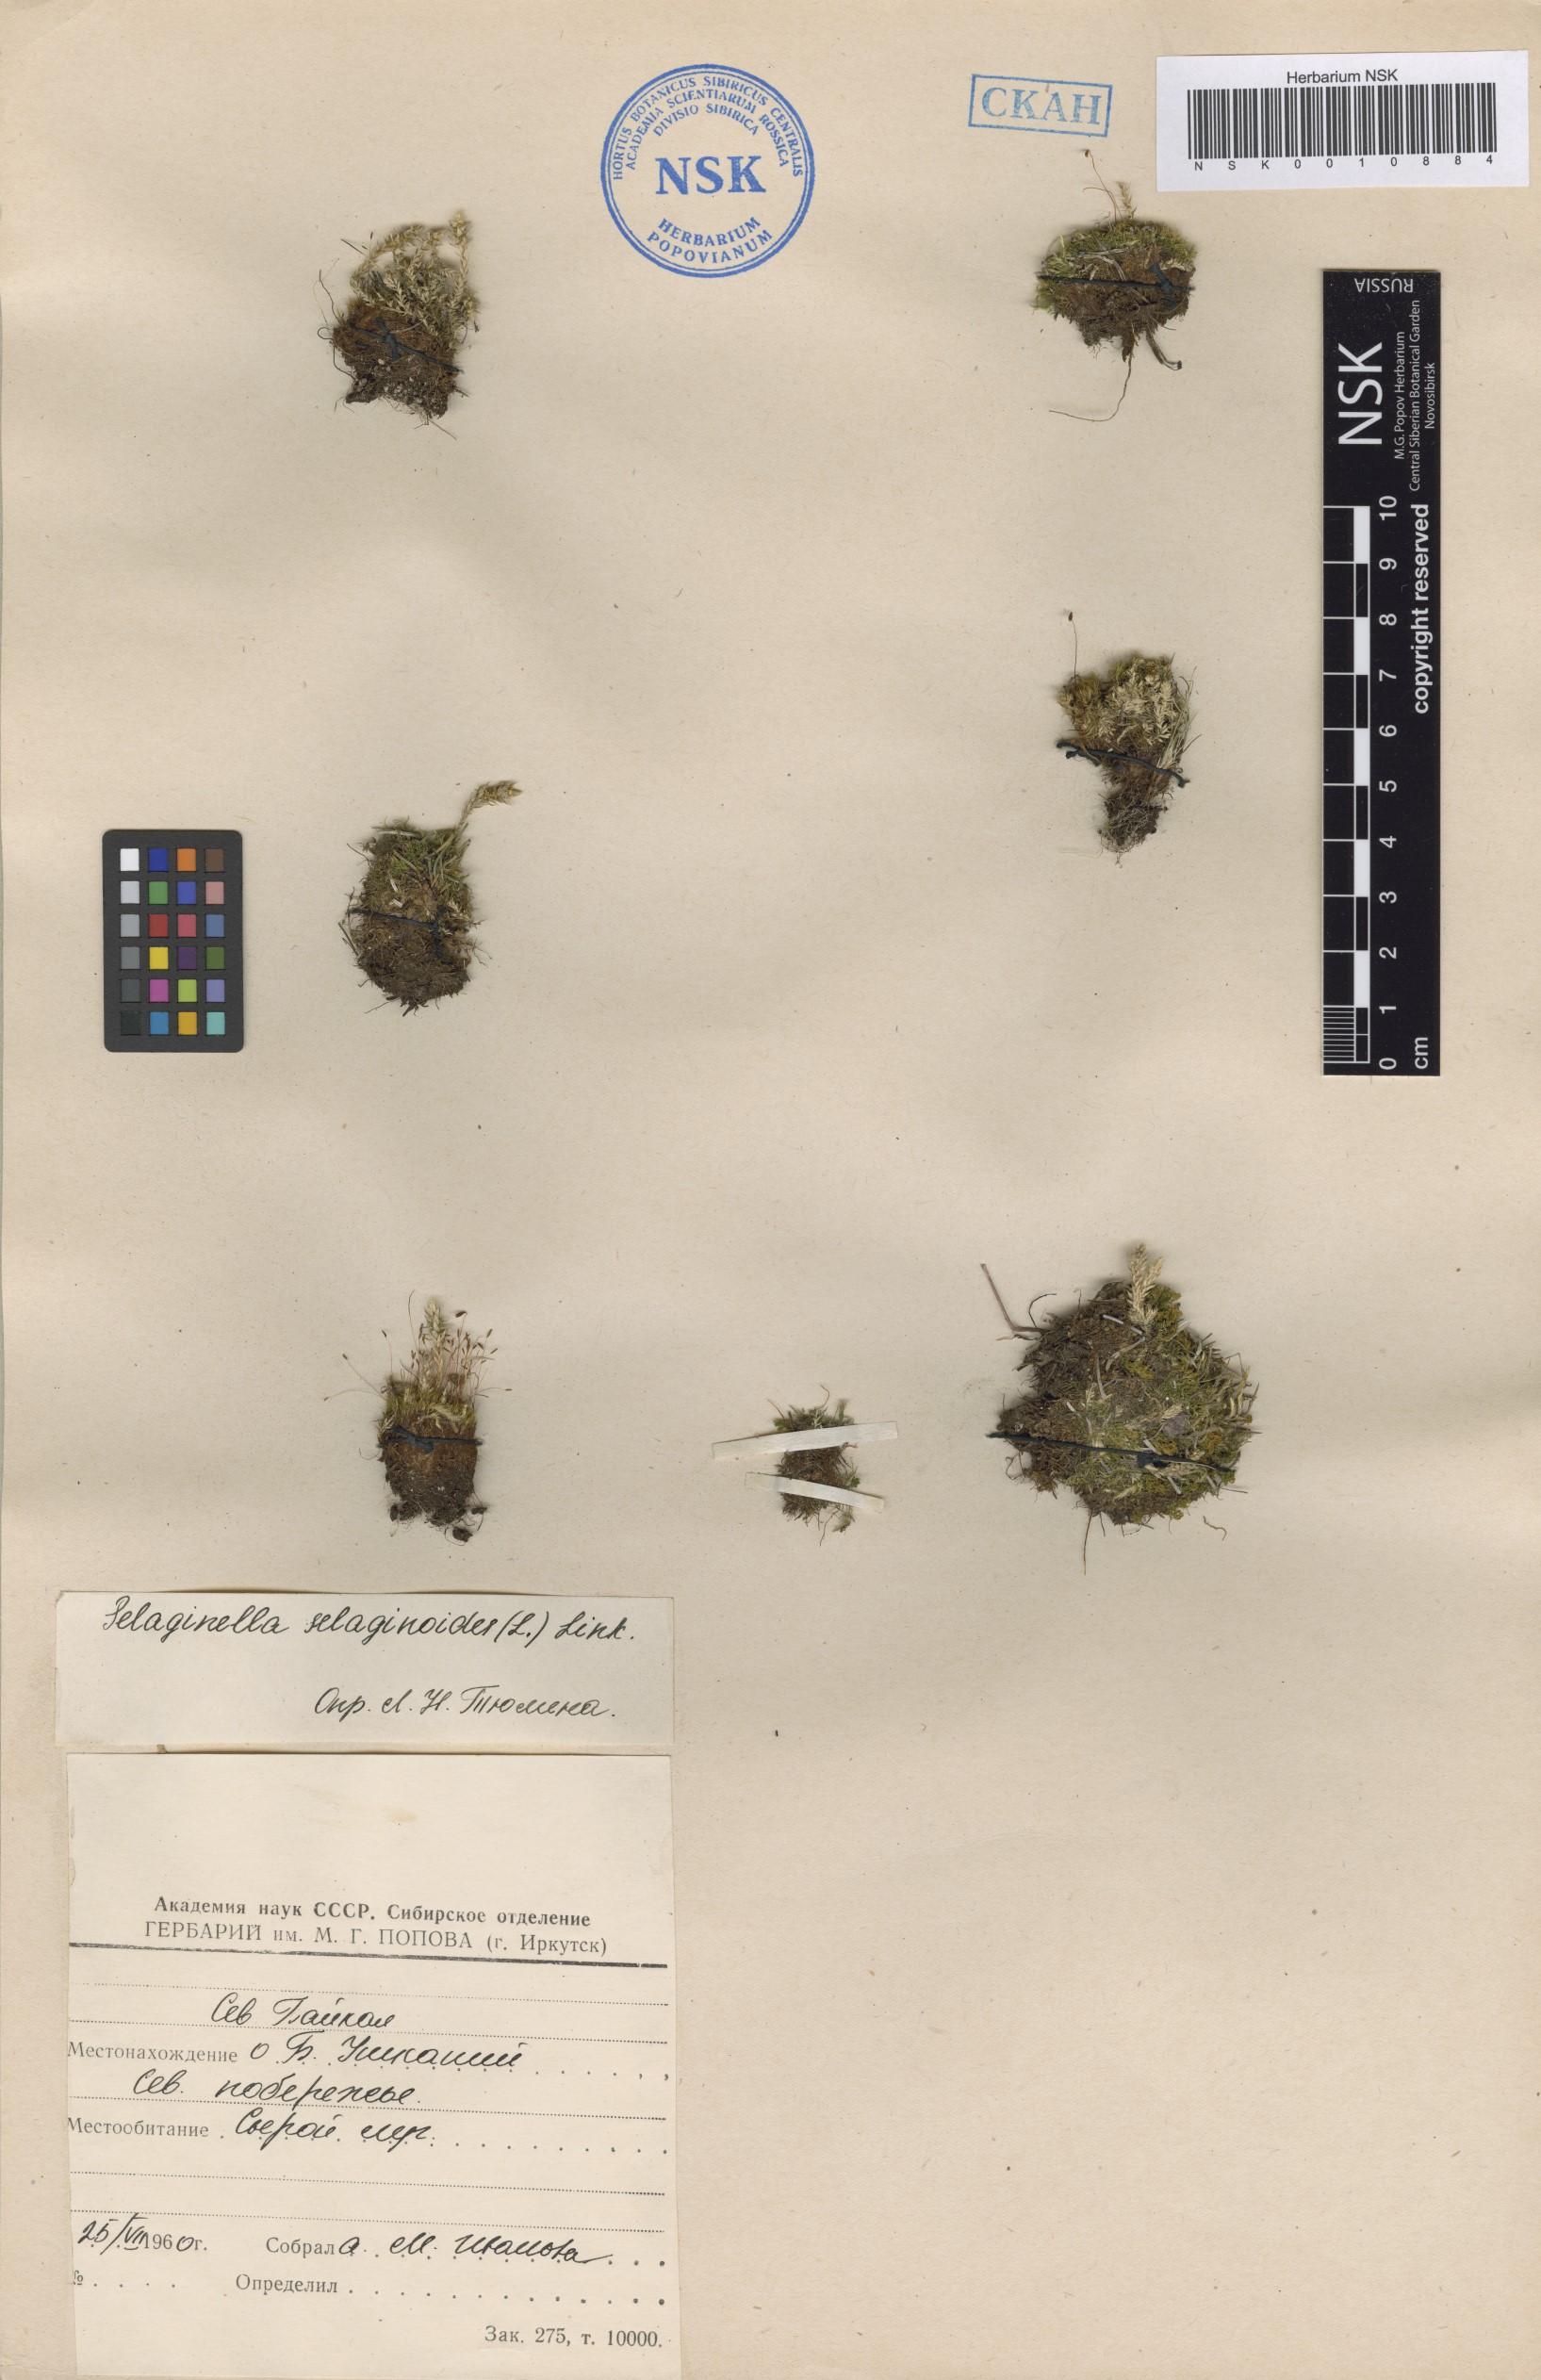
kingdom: Plantae
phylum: Tracheophyta
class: Lycopodiopsida
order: Selaginellales
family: Selaginellaceae
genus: Selaginella
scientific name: Selaginella selaginoides
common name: Prickly mountain-moss
